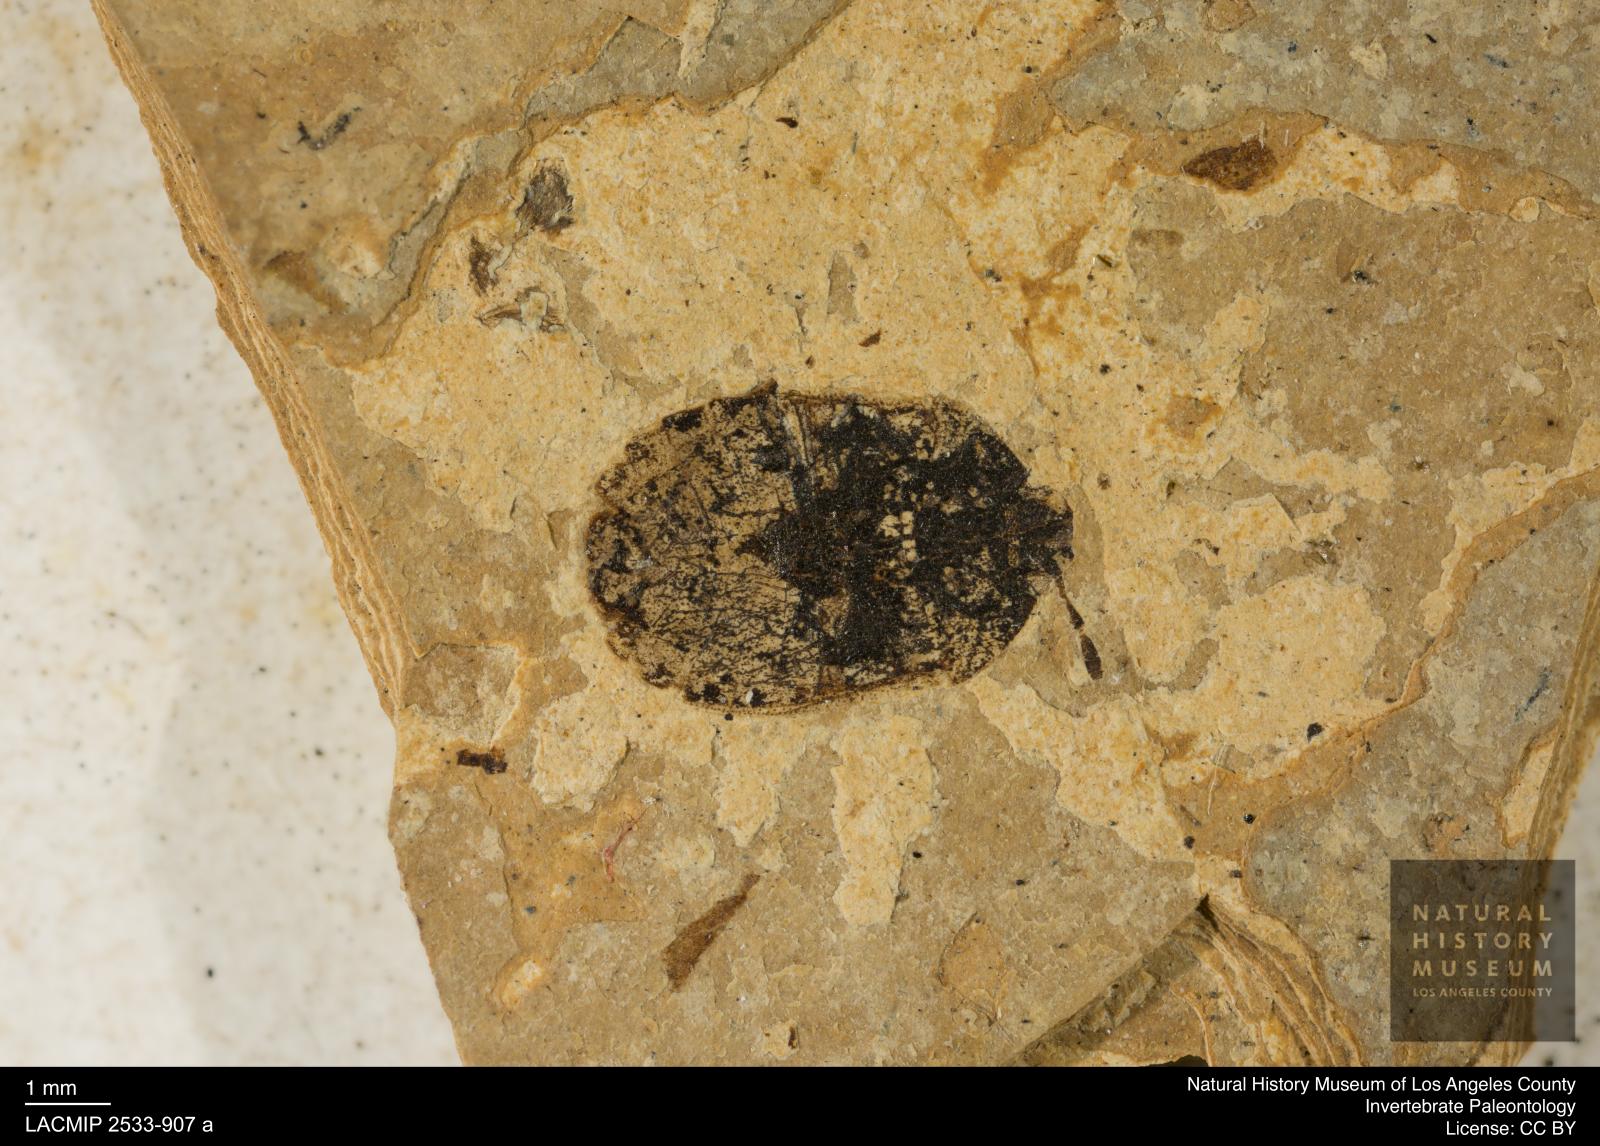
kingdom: Animalia
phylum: Arthropoda
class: Insecta
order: Hemiptera
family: Cydnidae
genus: Cydnus
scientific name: Cydnus picatus
